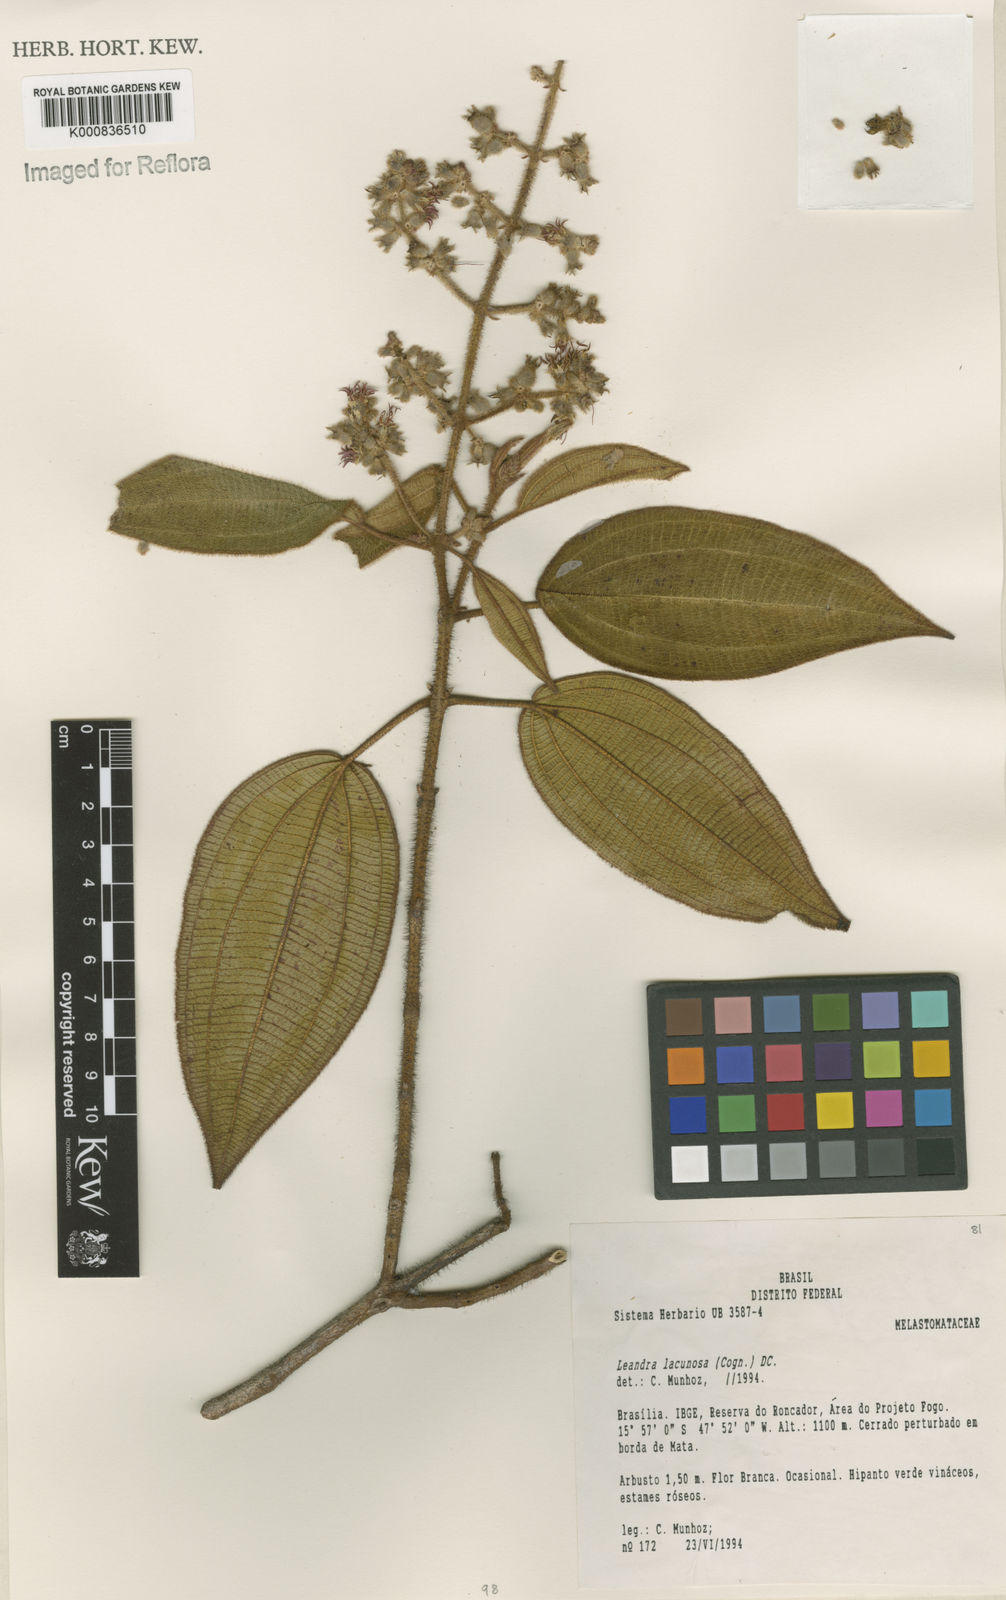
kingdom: Plantae
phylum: Tracheophyta
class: Magnoliopsida
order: Myrtales
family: Melastomataceae
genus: Miconia
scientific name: Miconia lacunosa
